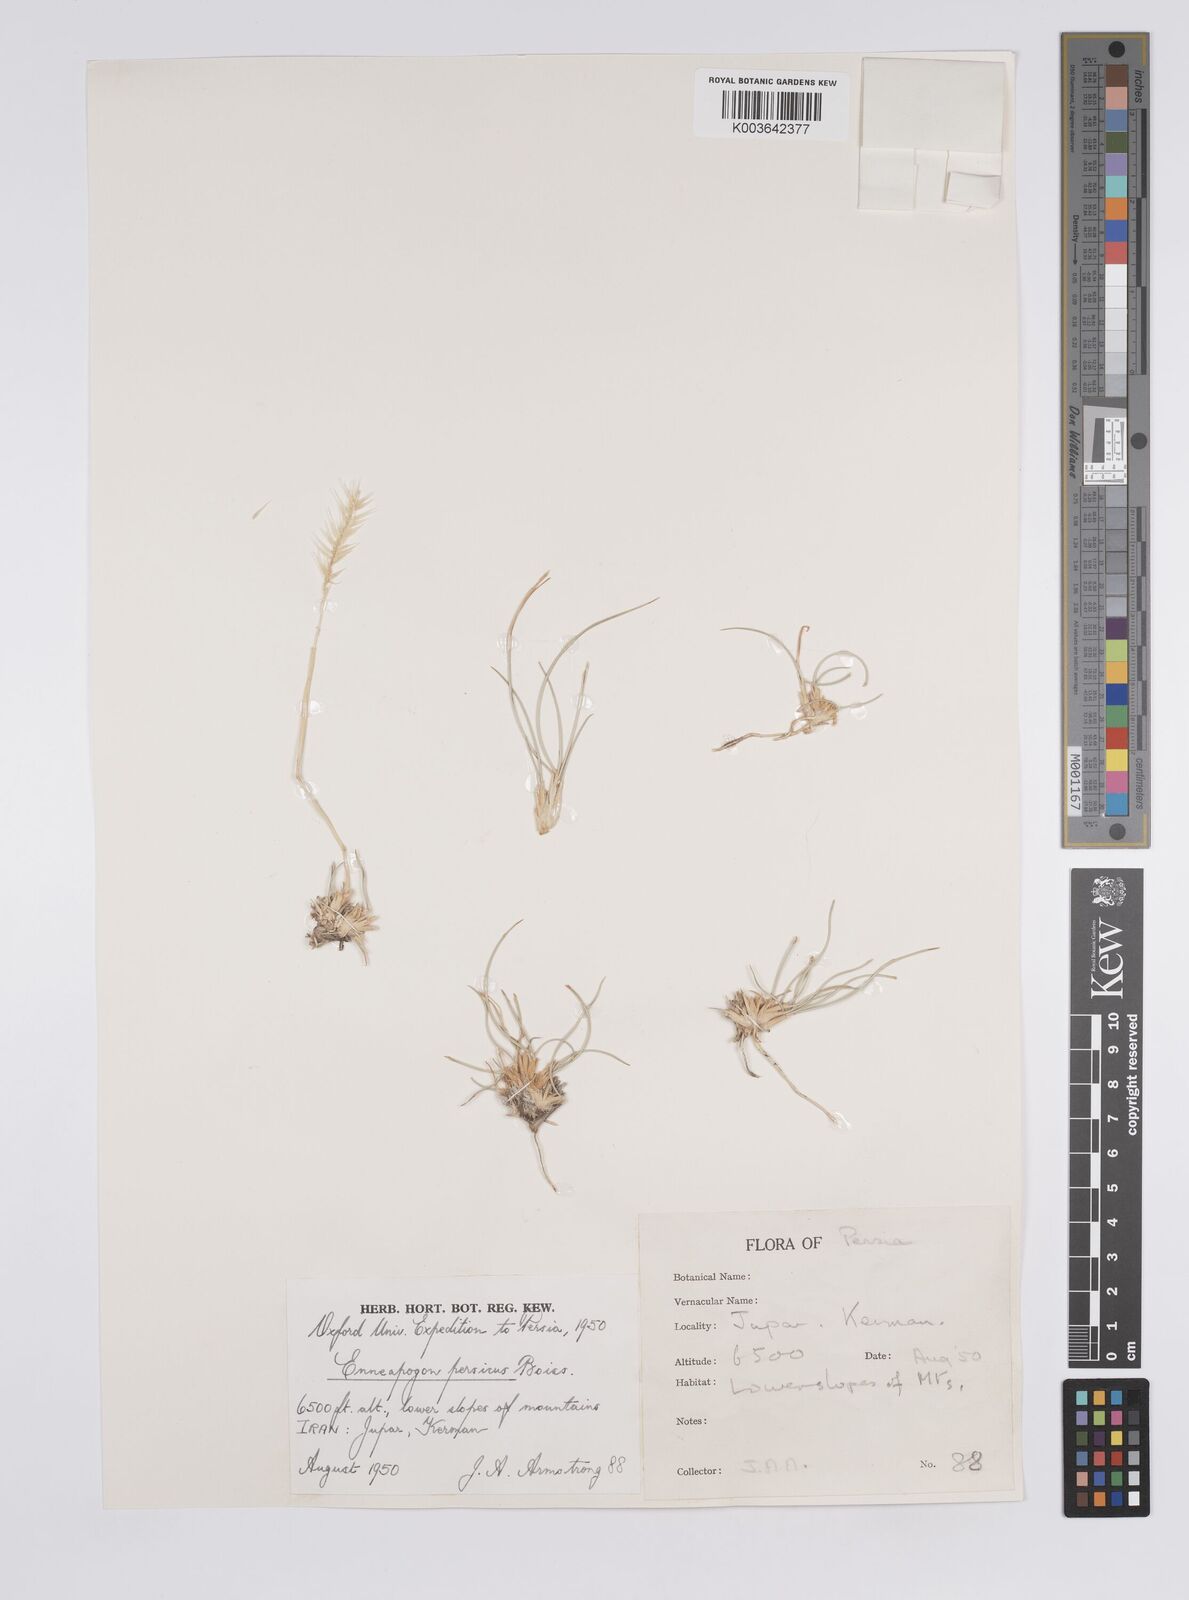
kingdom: Plantae
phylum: Tracheophyta
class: Liliopsida
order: Poales
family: Poaceae
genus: Enneapogon
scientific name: Enneapogon persicus
